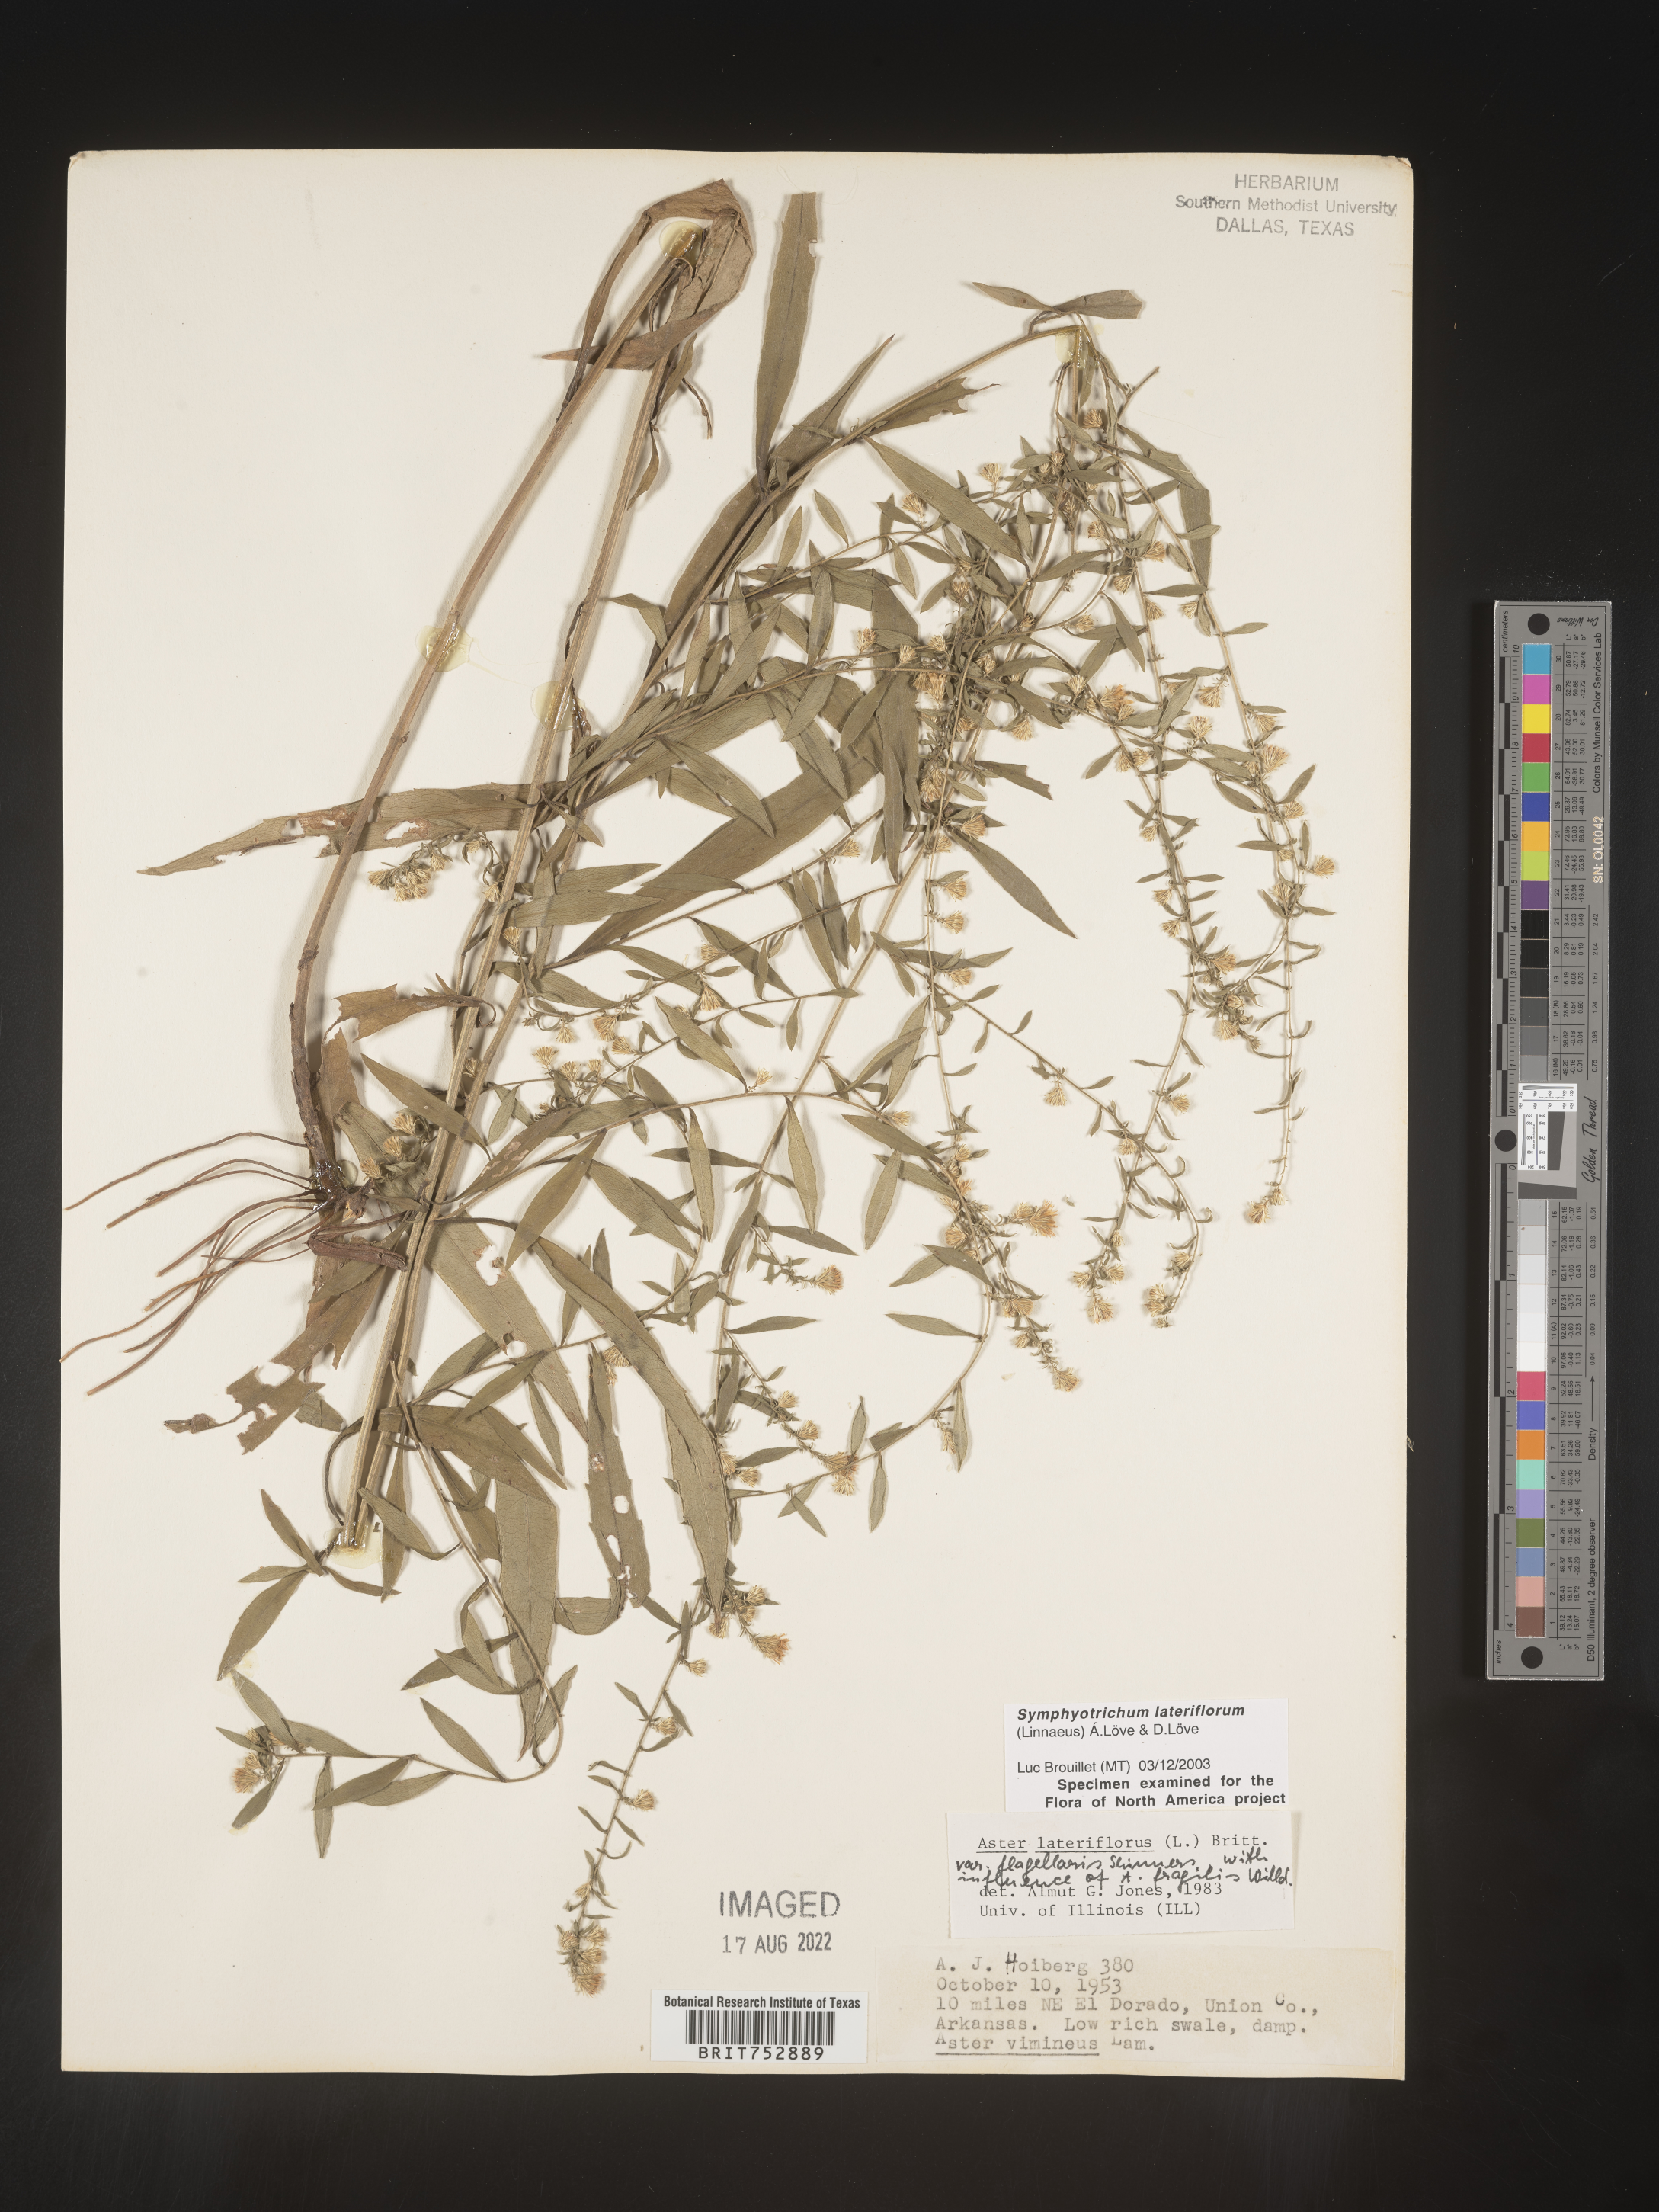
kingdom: Plantae
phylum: Tracheophyta
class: Magnoliopsida
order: Asterales
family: Asteraceae
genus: Symphyotrichum
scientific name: Symphyotrichum lateriflorum
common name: Calico aster
